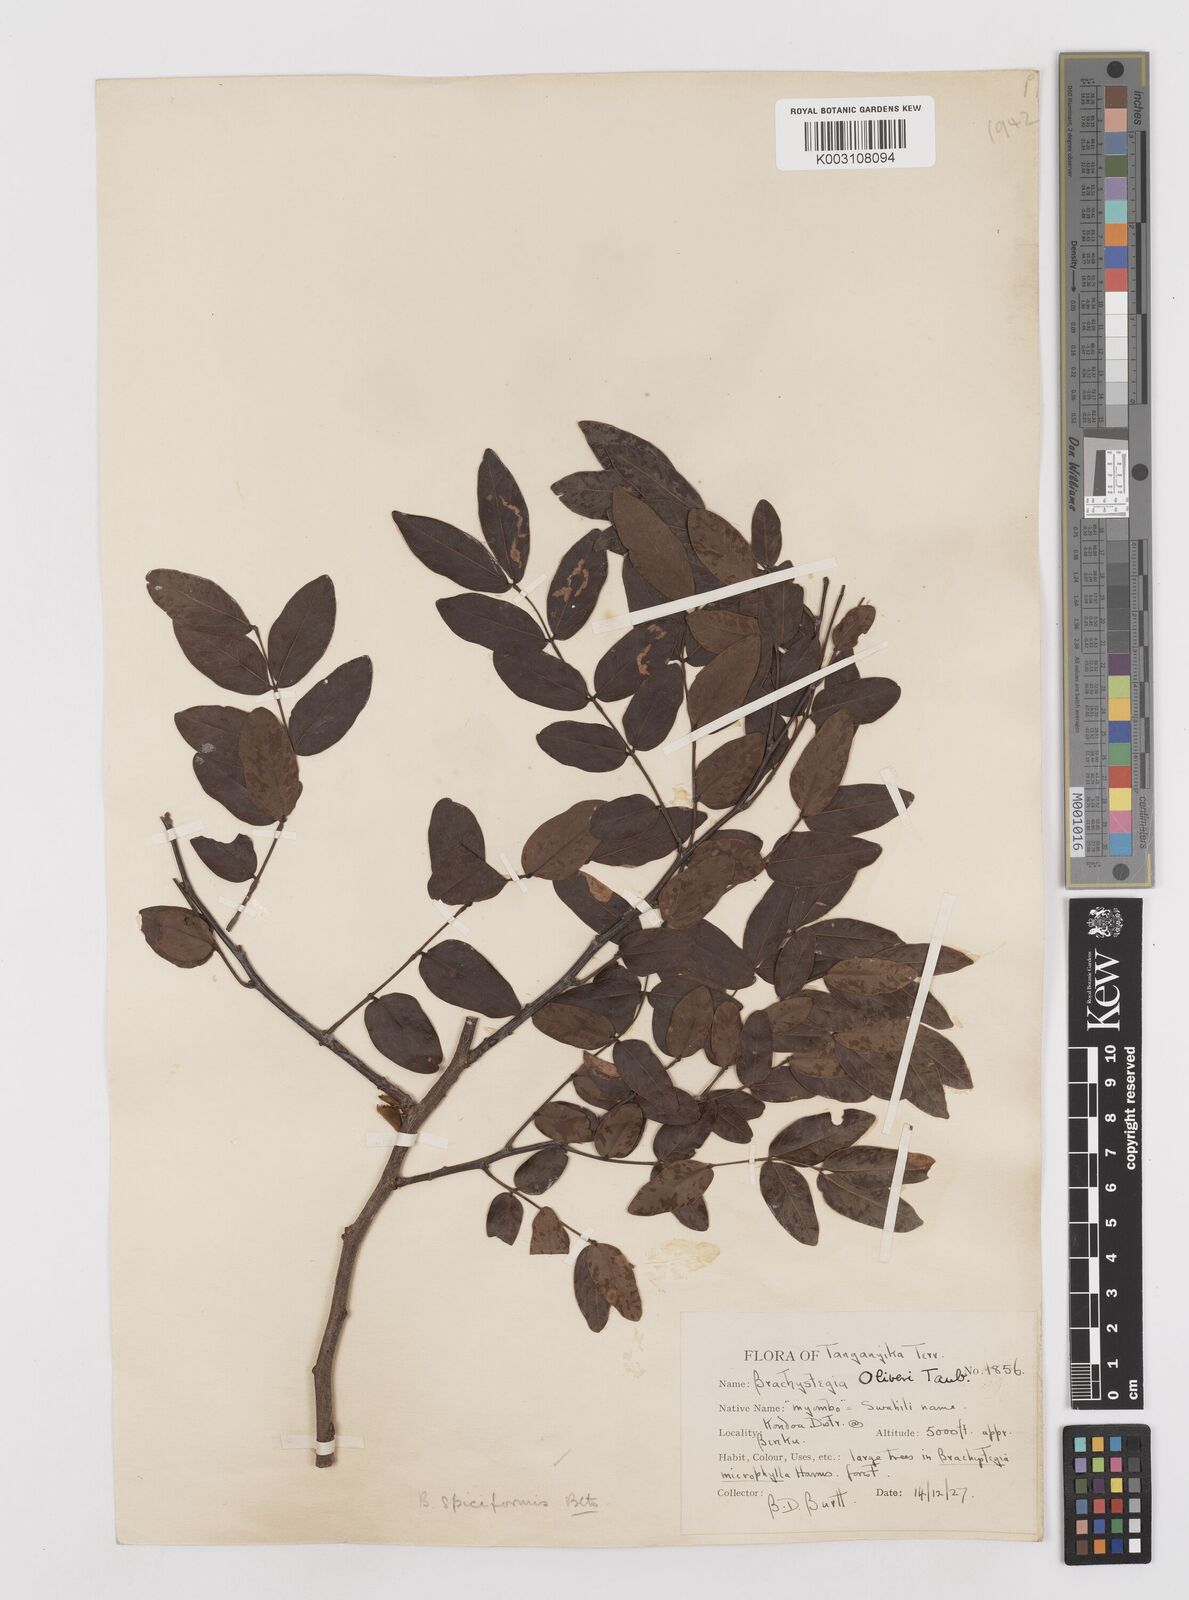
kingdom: Plantae
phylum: Tracheophyta
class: Magnoliopsida
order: Fabales
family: Fabaceae
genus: Brachystegia
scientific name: Brachystegia spiciformis
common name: Zebrawood
